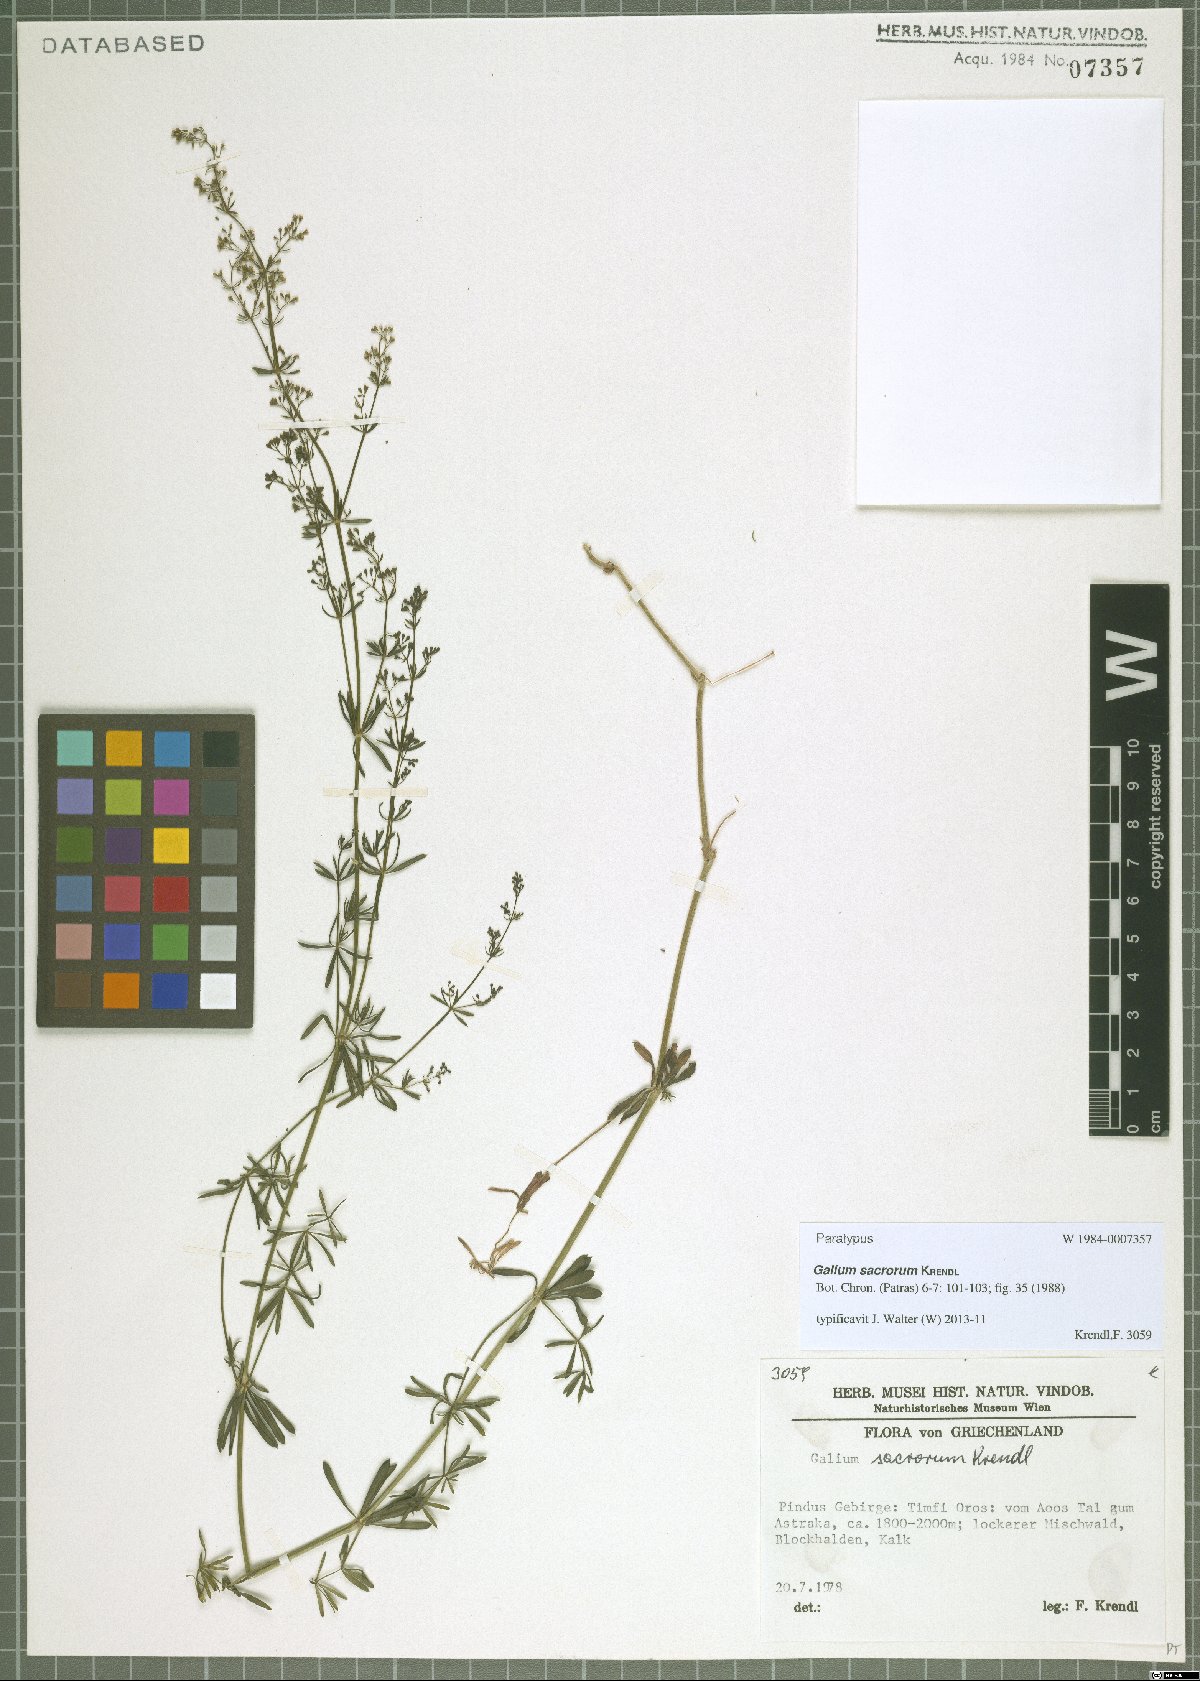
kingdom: Plantae
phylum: Tracheophyta
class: Magnoliopsida
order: Gentianales
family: Rubiaceae
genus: Galium
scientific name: Galium monasterium
